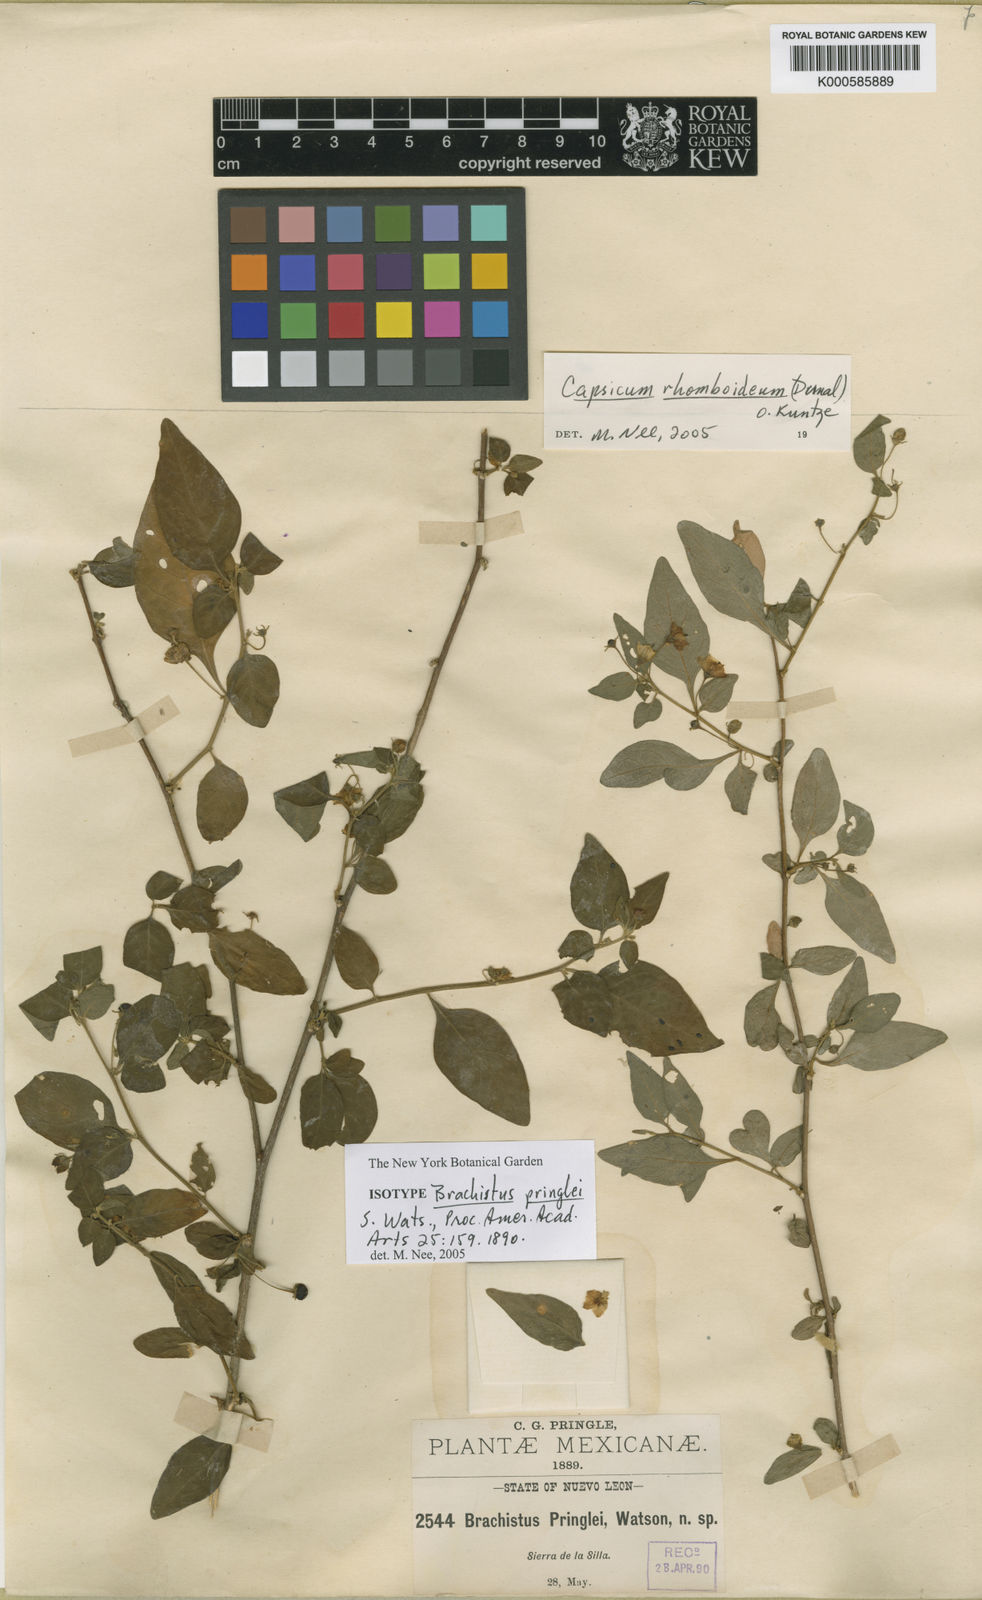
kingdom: Plantae
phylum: Tracheophyta
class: Magnoliopsida
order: Solanales
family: Solanaceae
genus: Capsicum
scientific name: Capsicum
